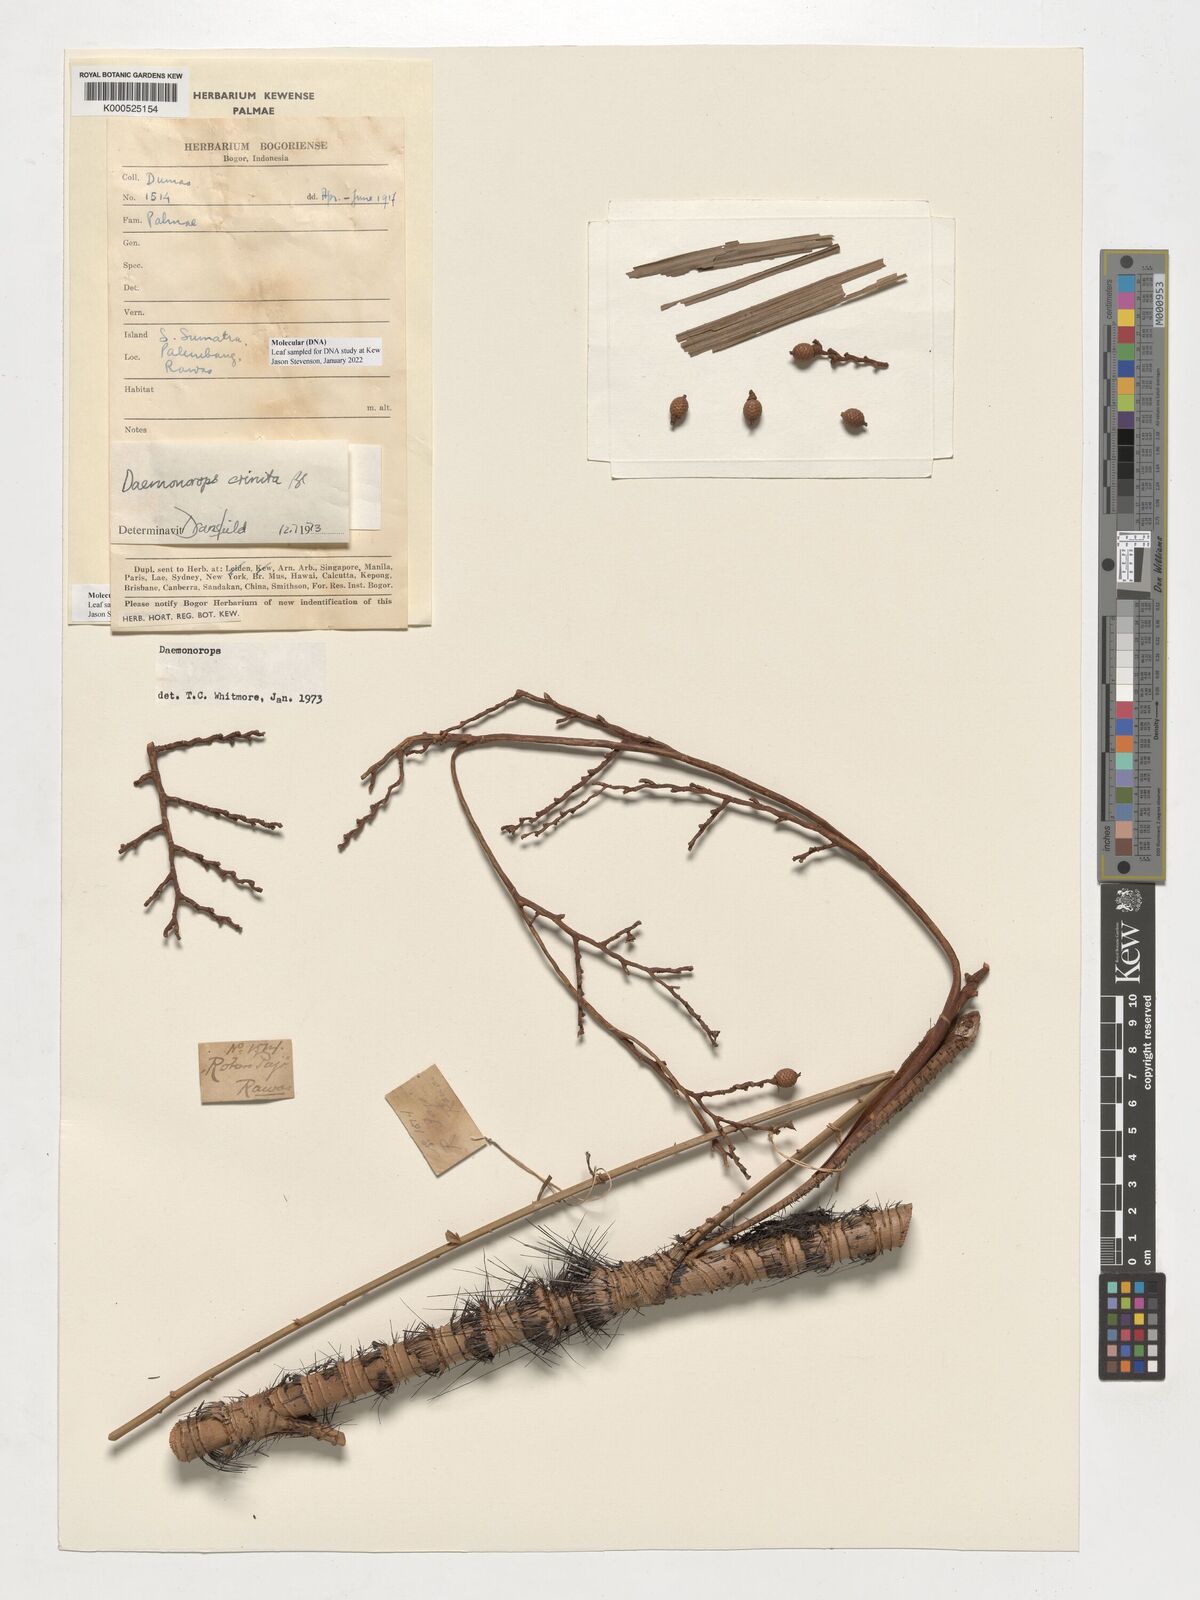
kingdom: Plantae
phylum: Tracheophyta
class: Liliopsida
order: Arecales
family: Arecaceae
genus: Calamus
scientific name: Calamus crinitus
